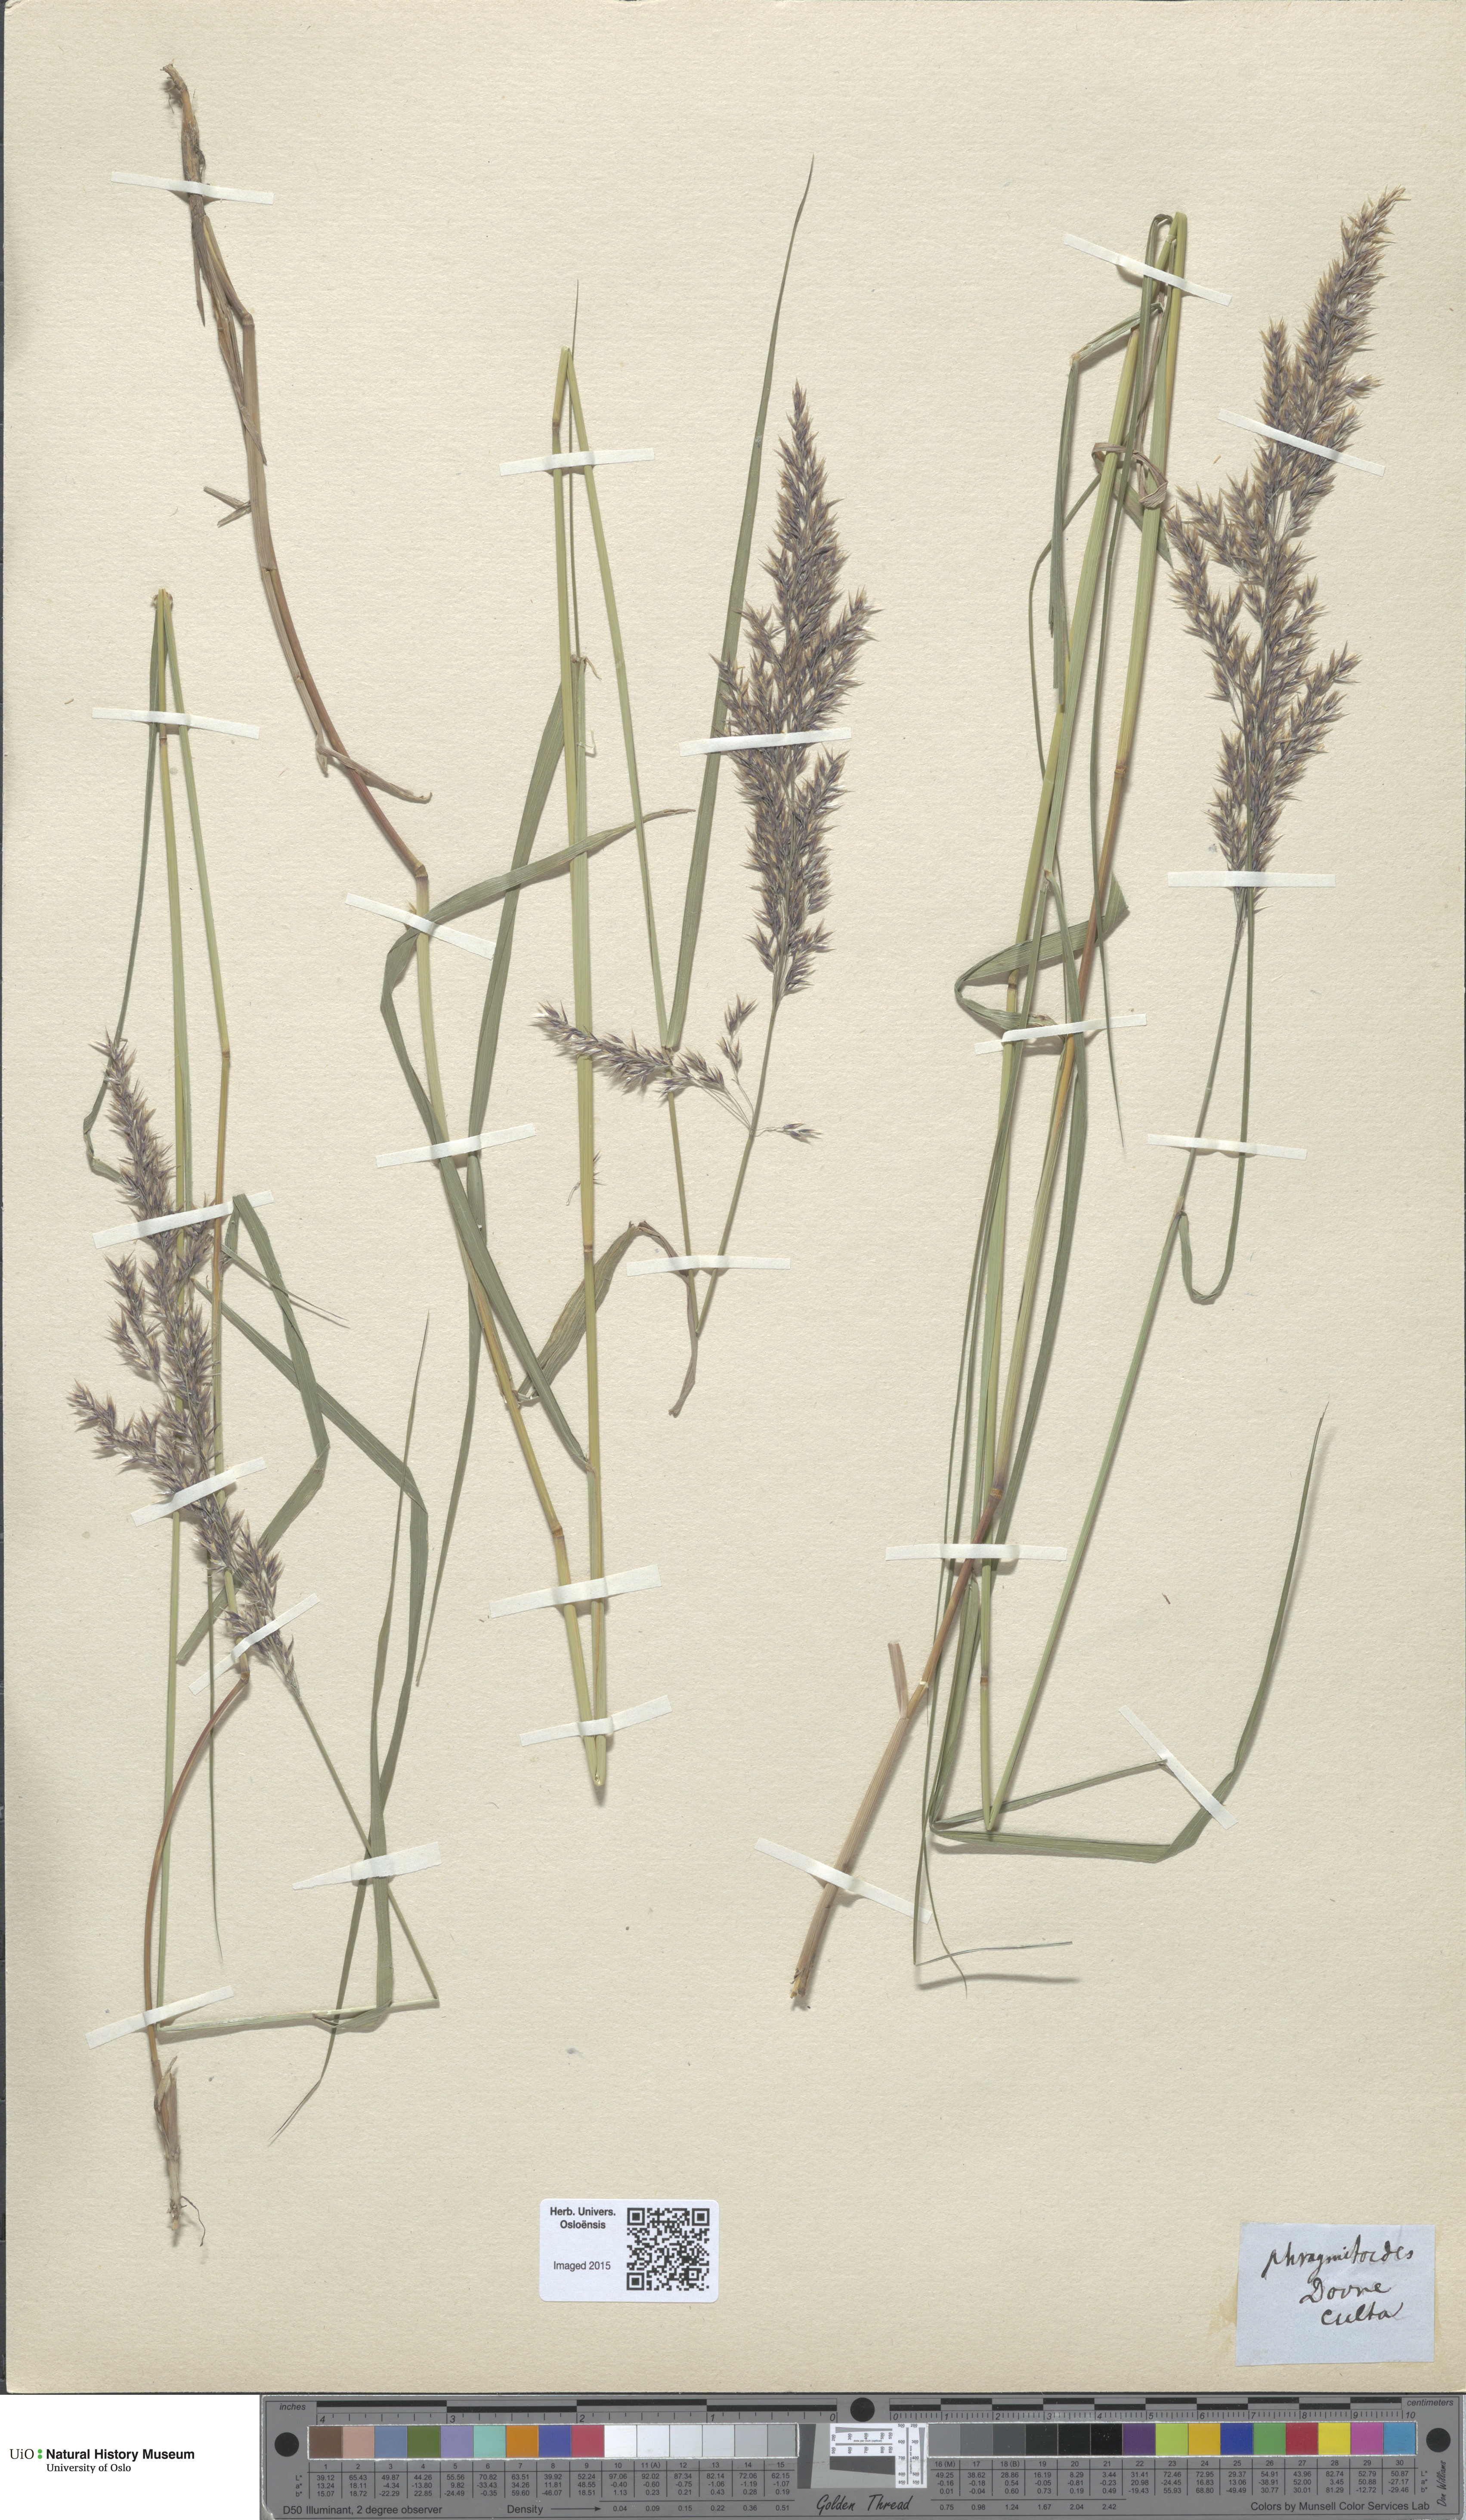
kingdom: Plantae
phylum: Tracheophyta
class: Liliopsida
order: Poales
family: Poaceae
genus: Calamagrostis
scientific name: Calamagrostis purpurea
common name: Scandinavian small-reed
